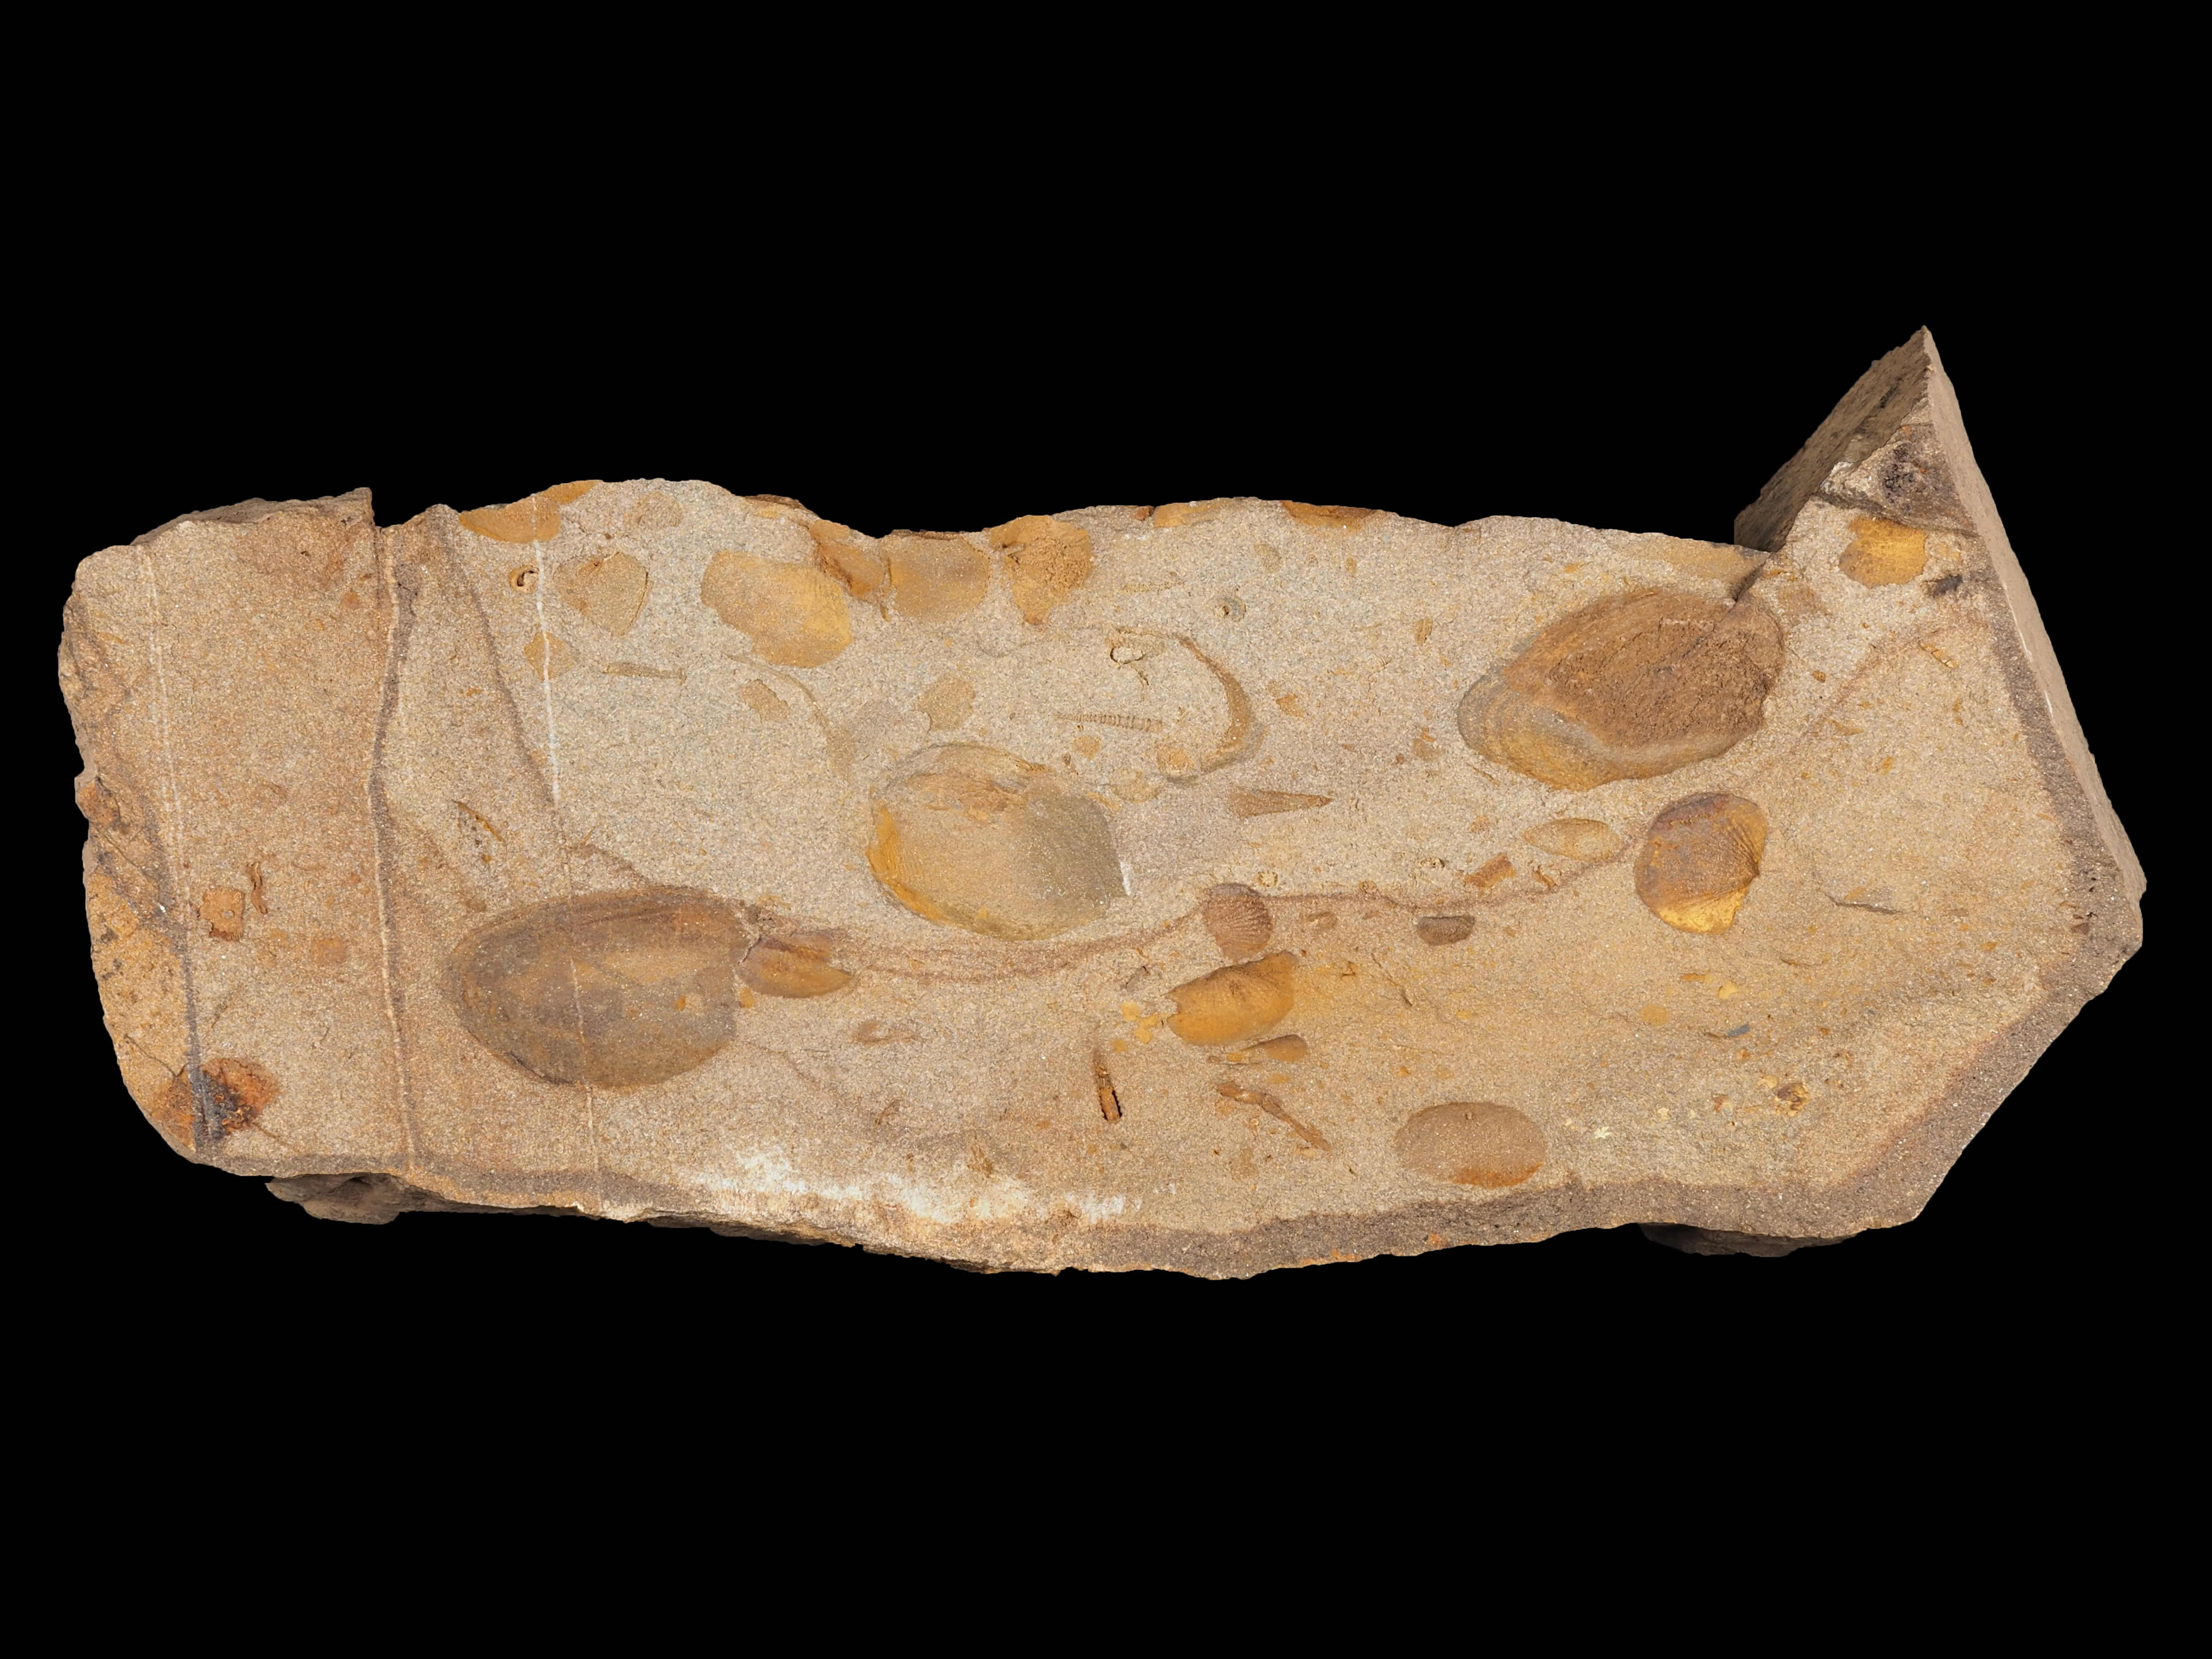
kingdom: Animalia
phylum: Mollusca
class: Bivalvia
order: Carditida
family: Crassatellidae
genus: Cypricardella
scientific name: Cypricardella
